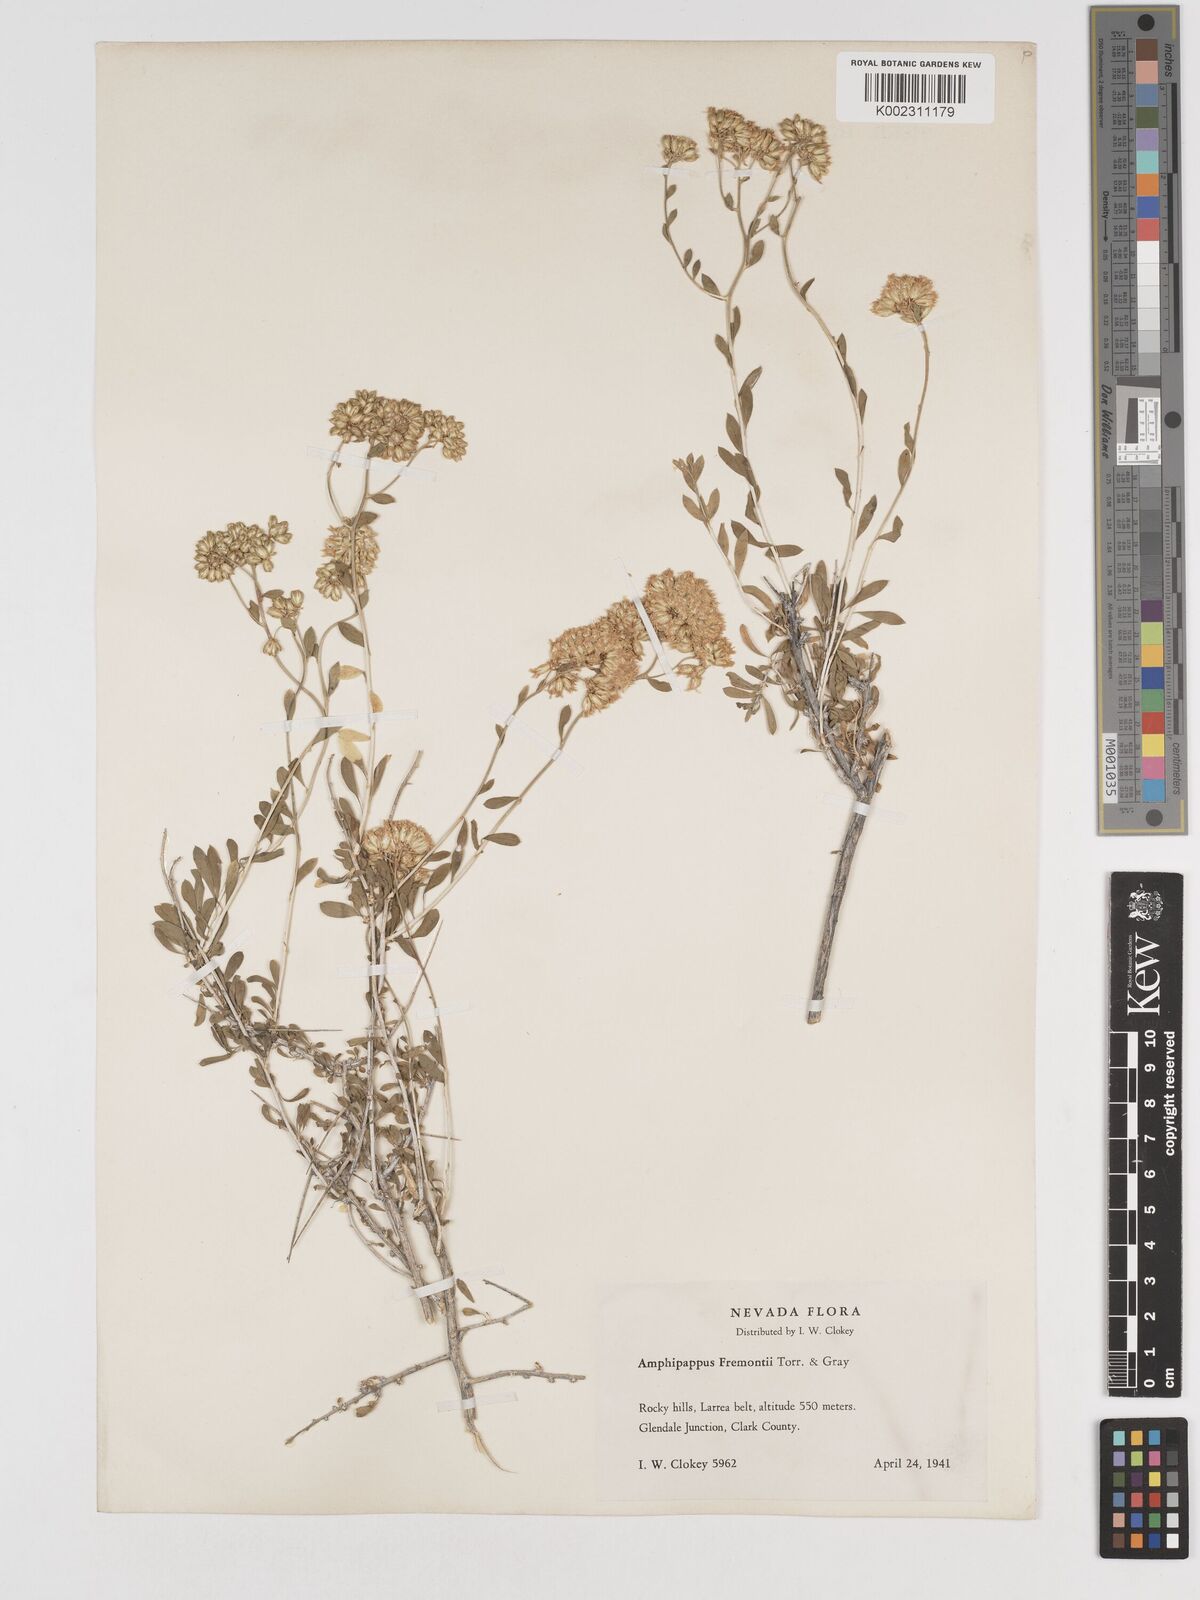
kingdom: Plantae
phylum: Tracheophyta
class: Magnoliopsida
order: Asterales
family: Asteraceae
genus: Amphipappus
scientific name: Amphipappus fremontii
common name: Fremont's chaffbush
